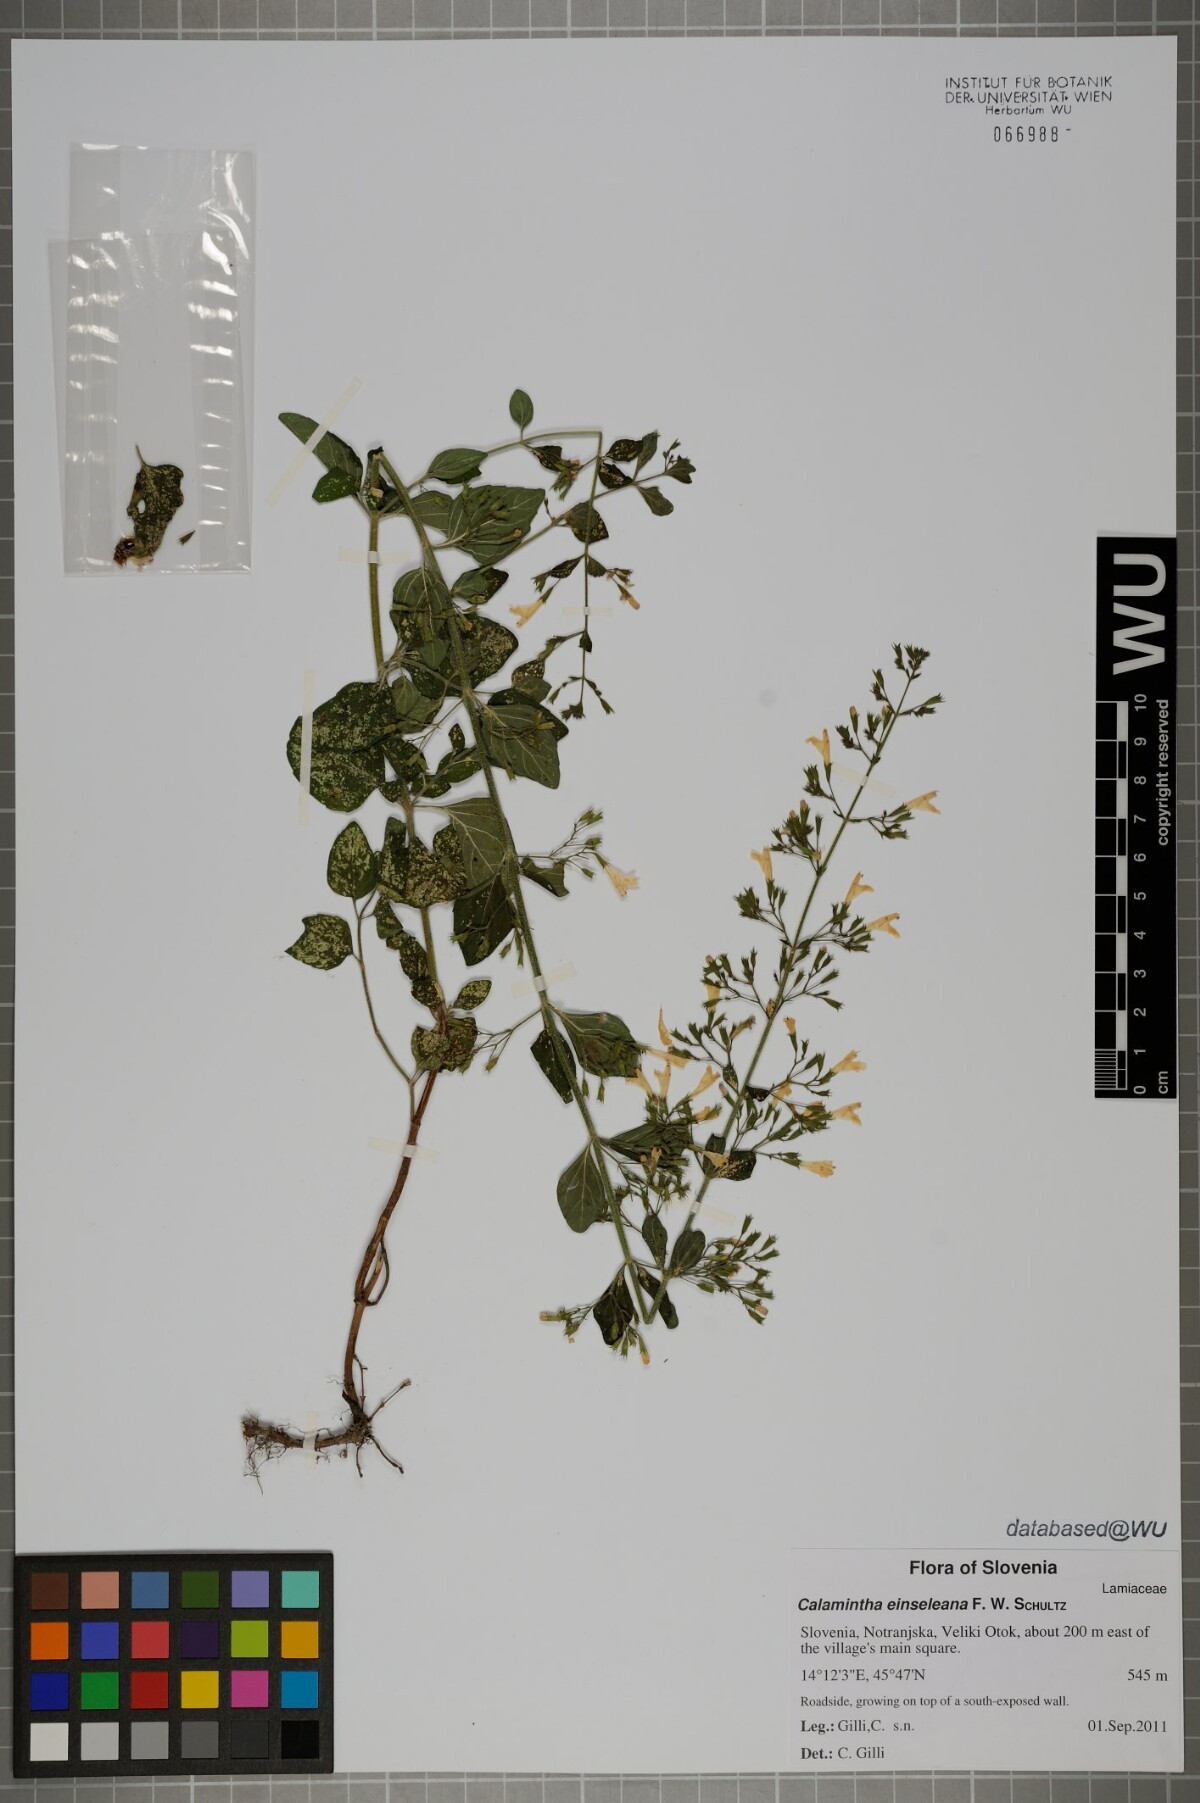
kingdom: Plantae
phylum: Tracheophyta
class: Magnoliopsida
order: Lamiales
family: Lamiaceae
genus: Clinopodium
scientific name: Clinopodium nepeta
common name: Lesser calamint
